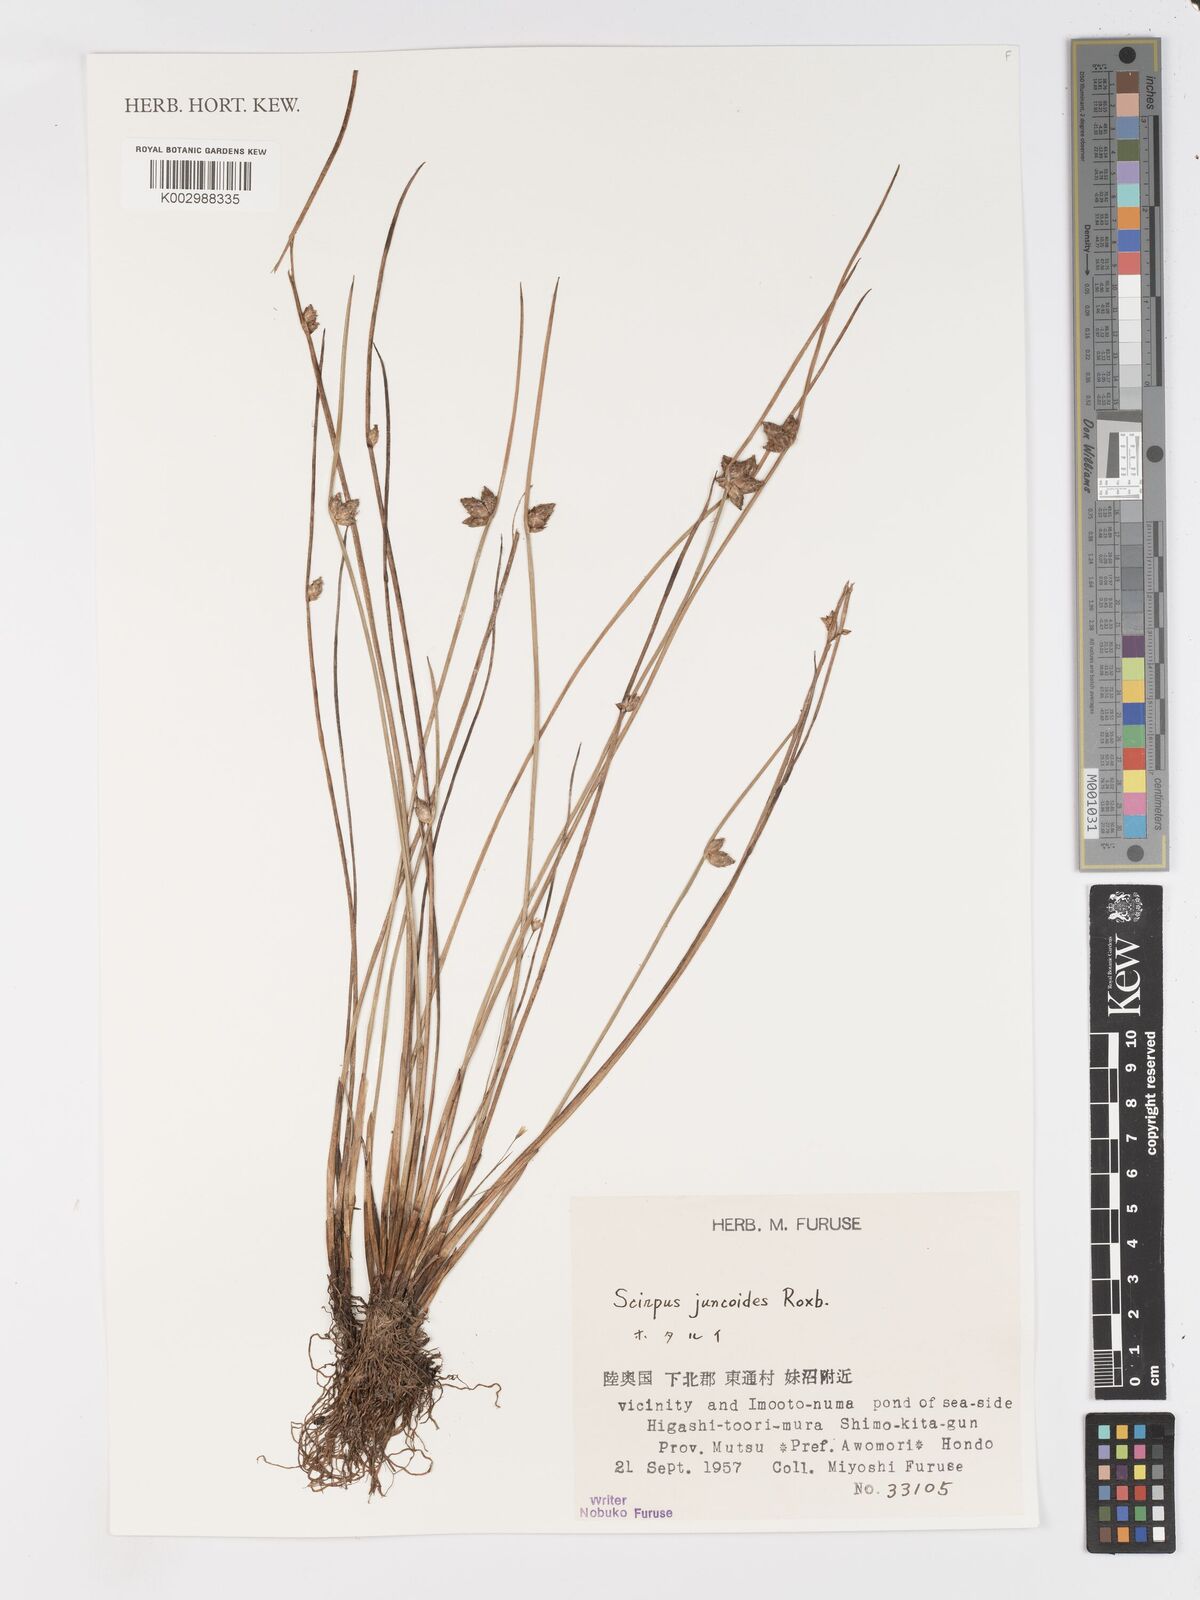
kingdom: Plantae
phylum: Tracheophyta
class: Liliopsida
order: Poales
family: Cyperaceae
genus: Schoenoplectiella
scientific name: Schoenoplectiella juncoides
